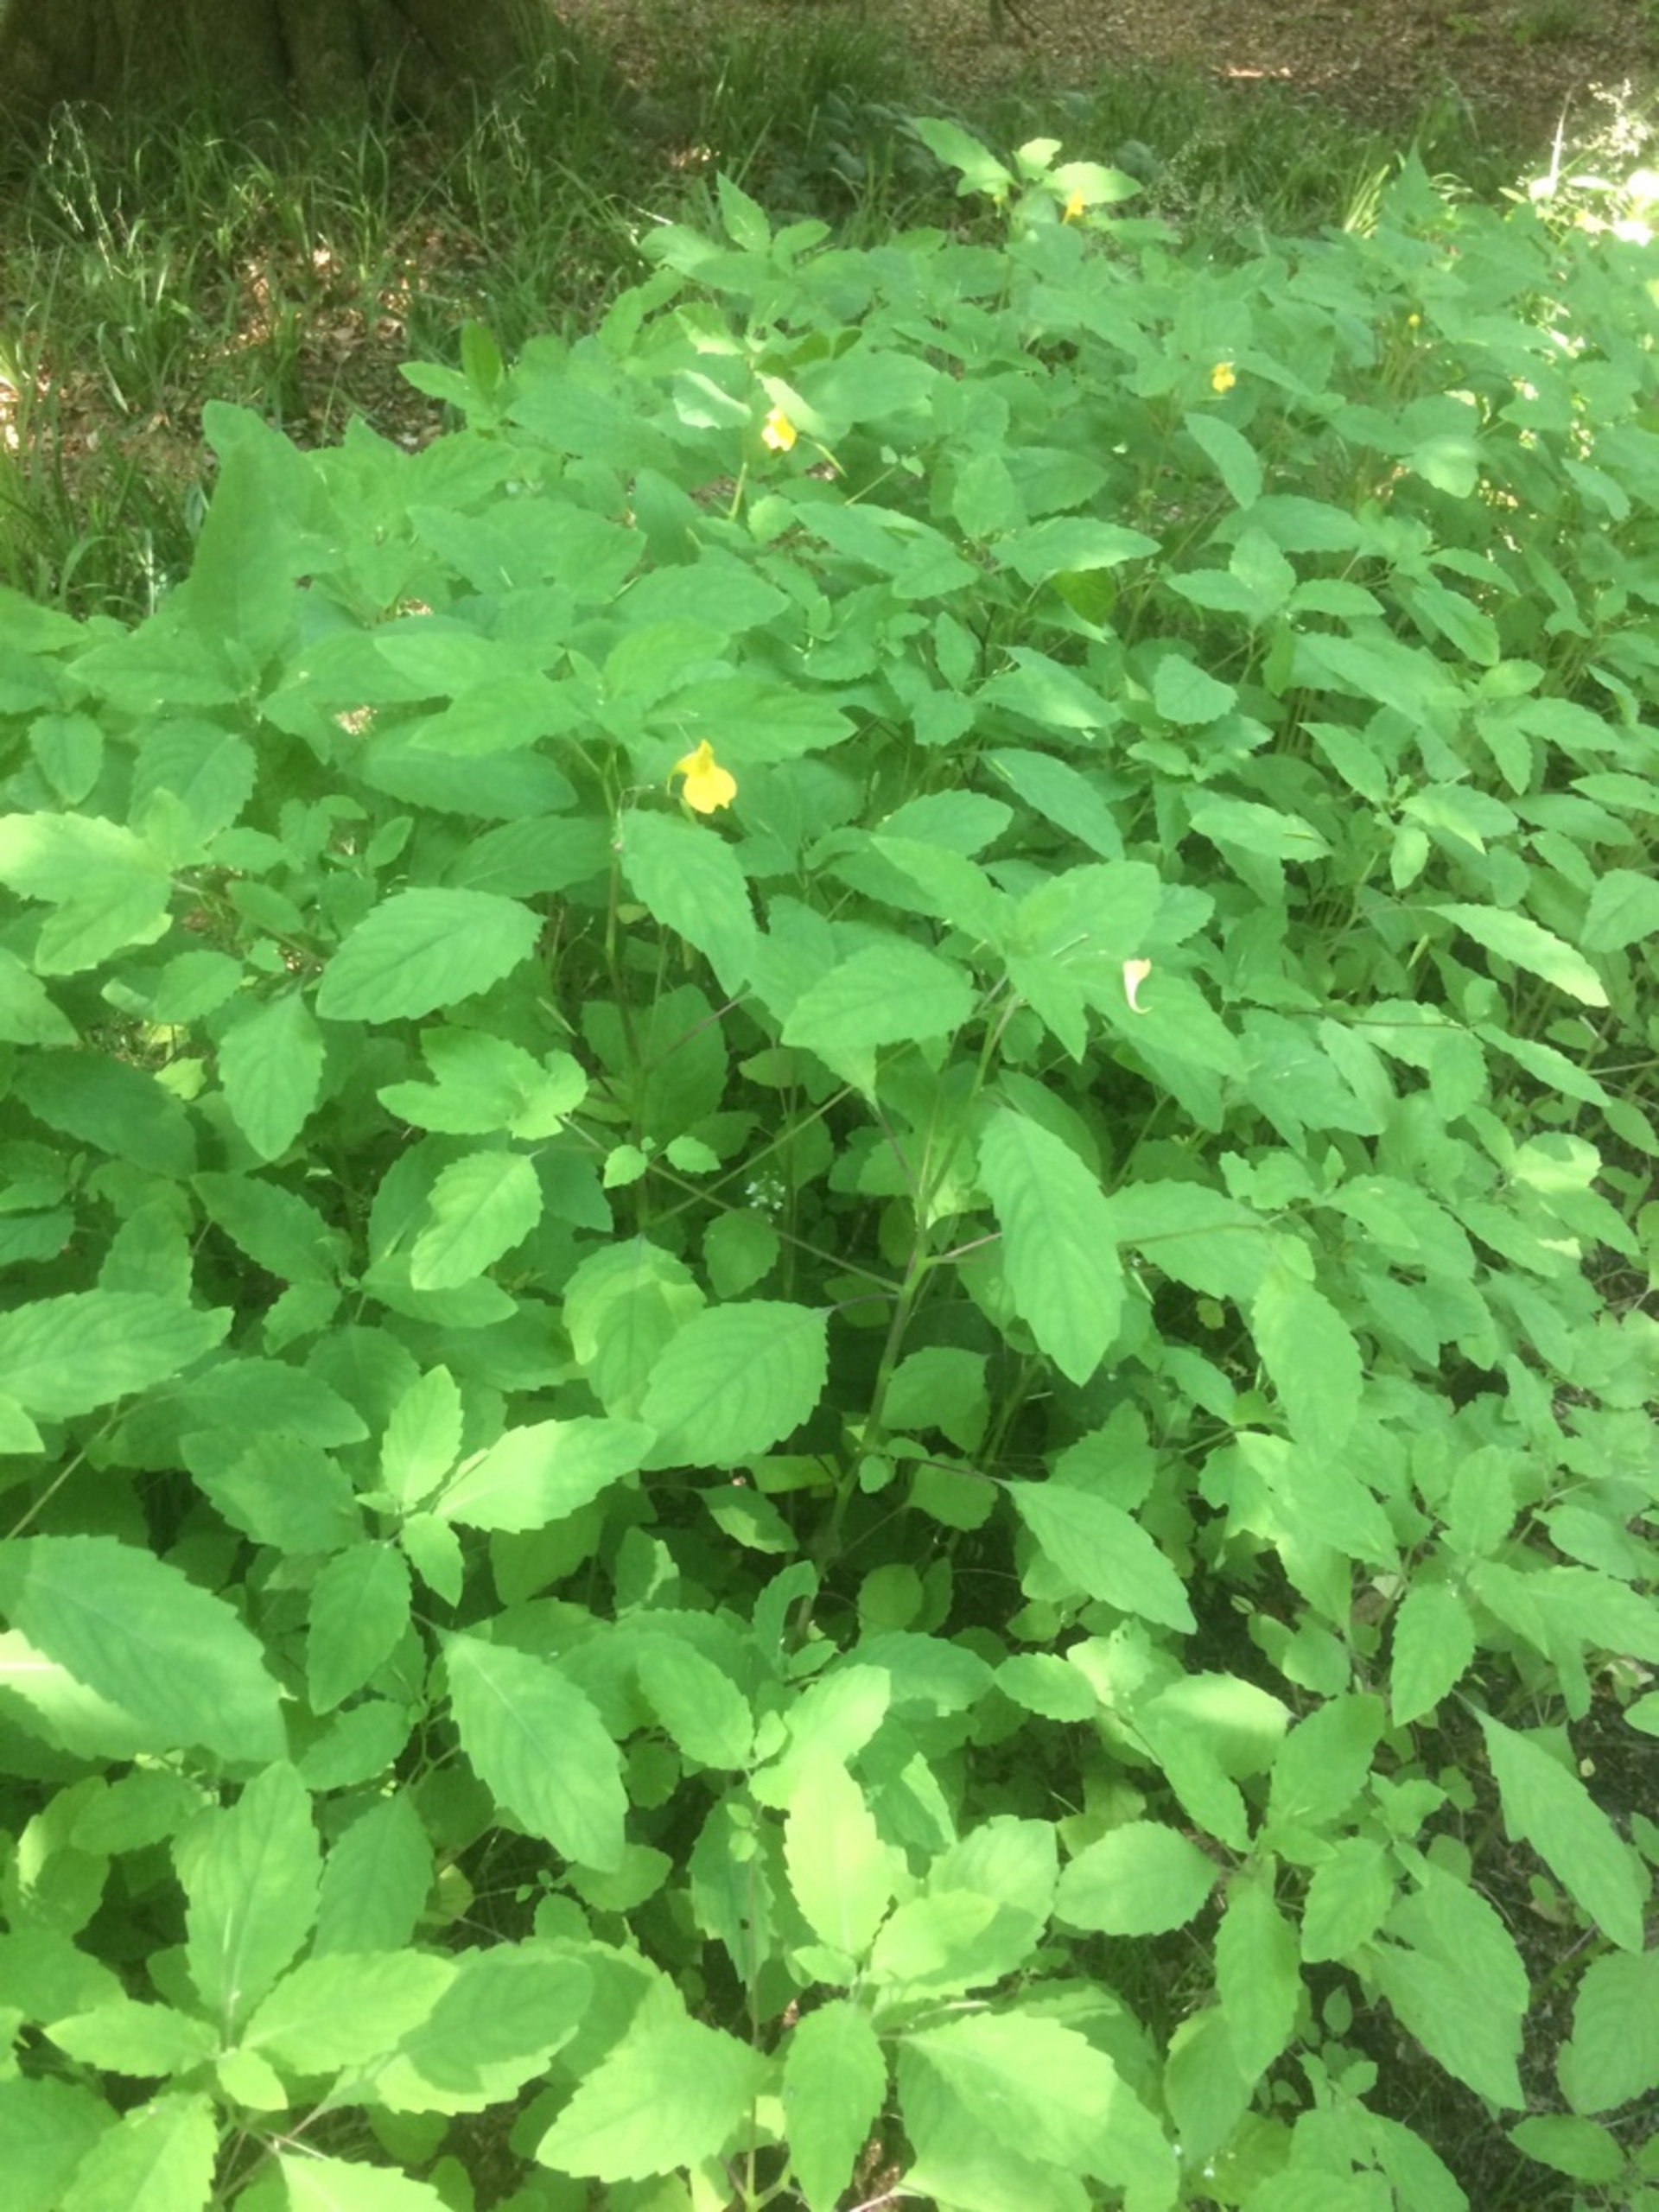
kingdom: Plantae
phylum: Tracheophyta
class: Magnoliopsida
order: Ericales
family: Balsaminaceae
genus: Impatiens
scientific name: Impatiens noli-tangere
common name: Spring-balsamin
